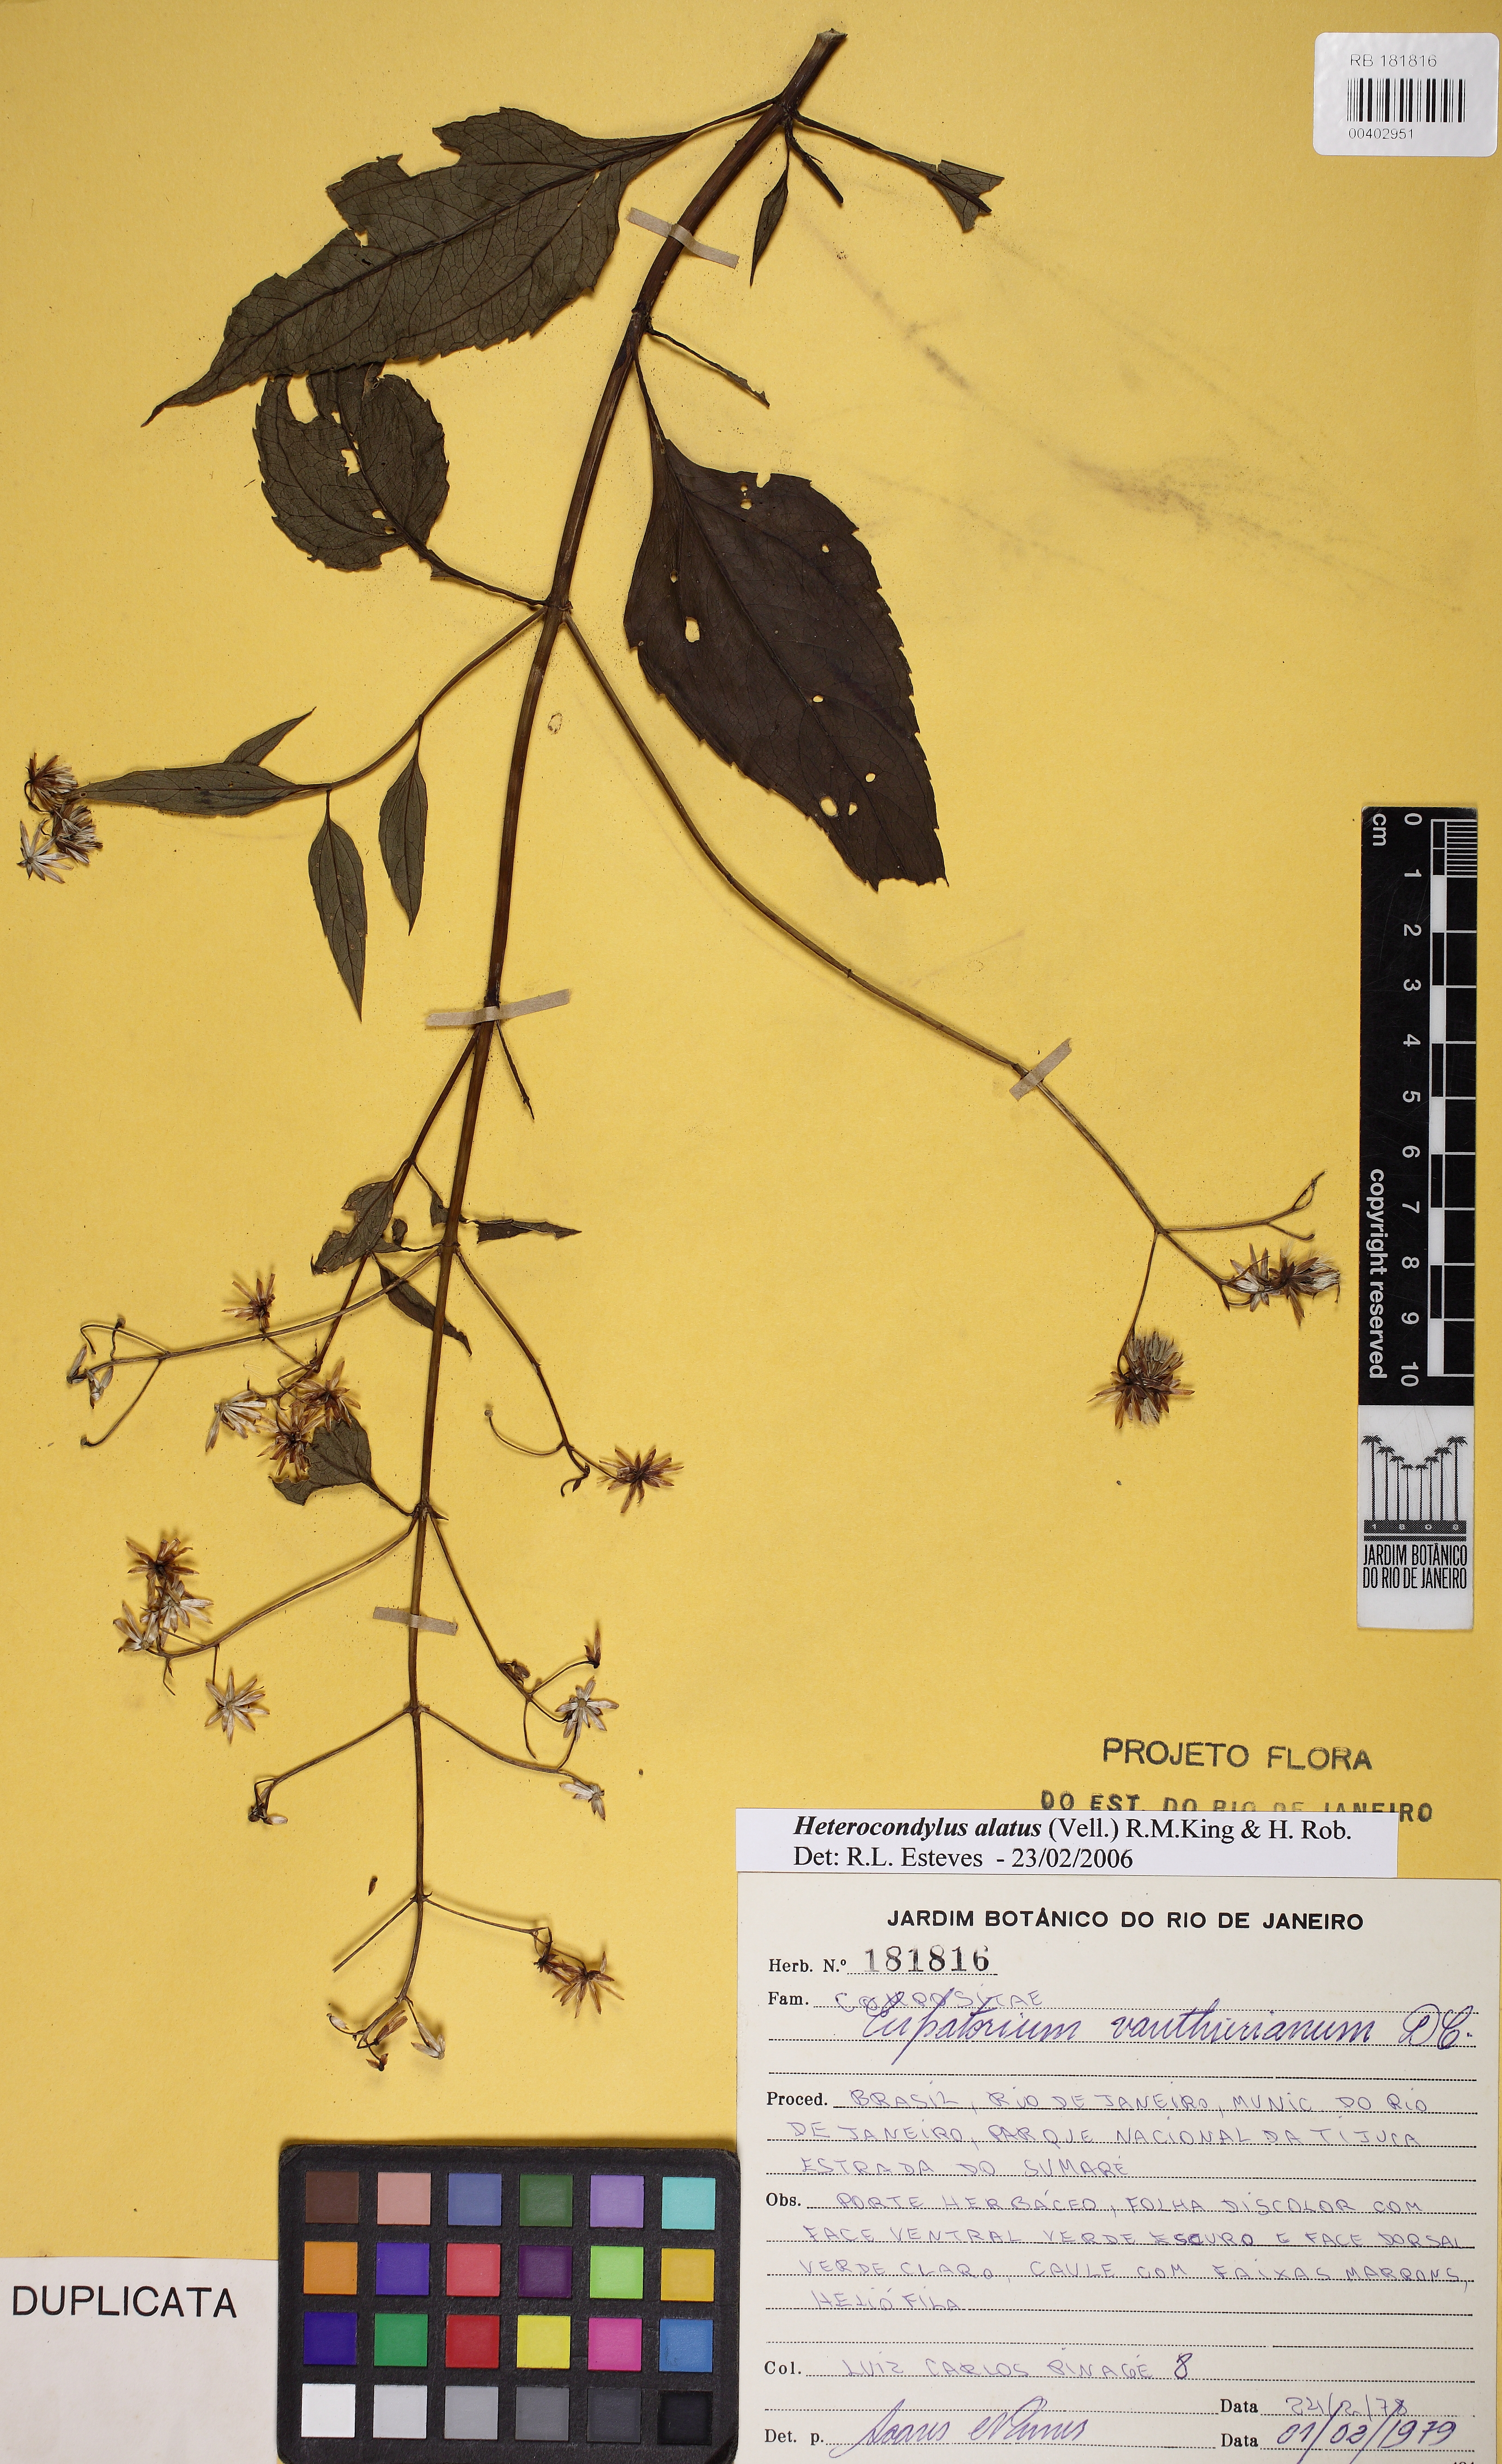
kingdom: Plantae
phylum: Tracheophyta
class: Magnoliopsida
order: Asterales
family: Asteraceae
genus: Heterocondylus
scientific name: Heterocondylus alatus
